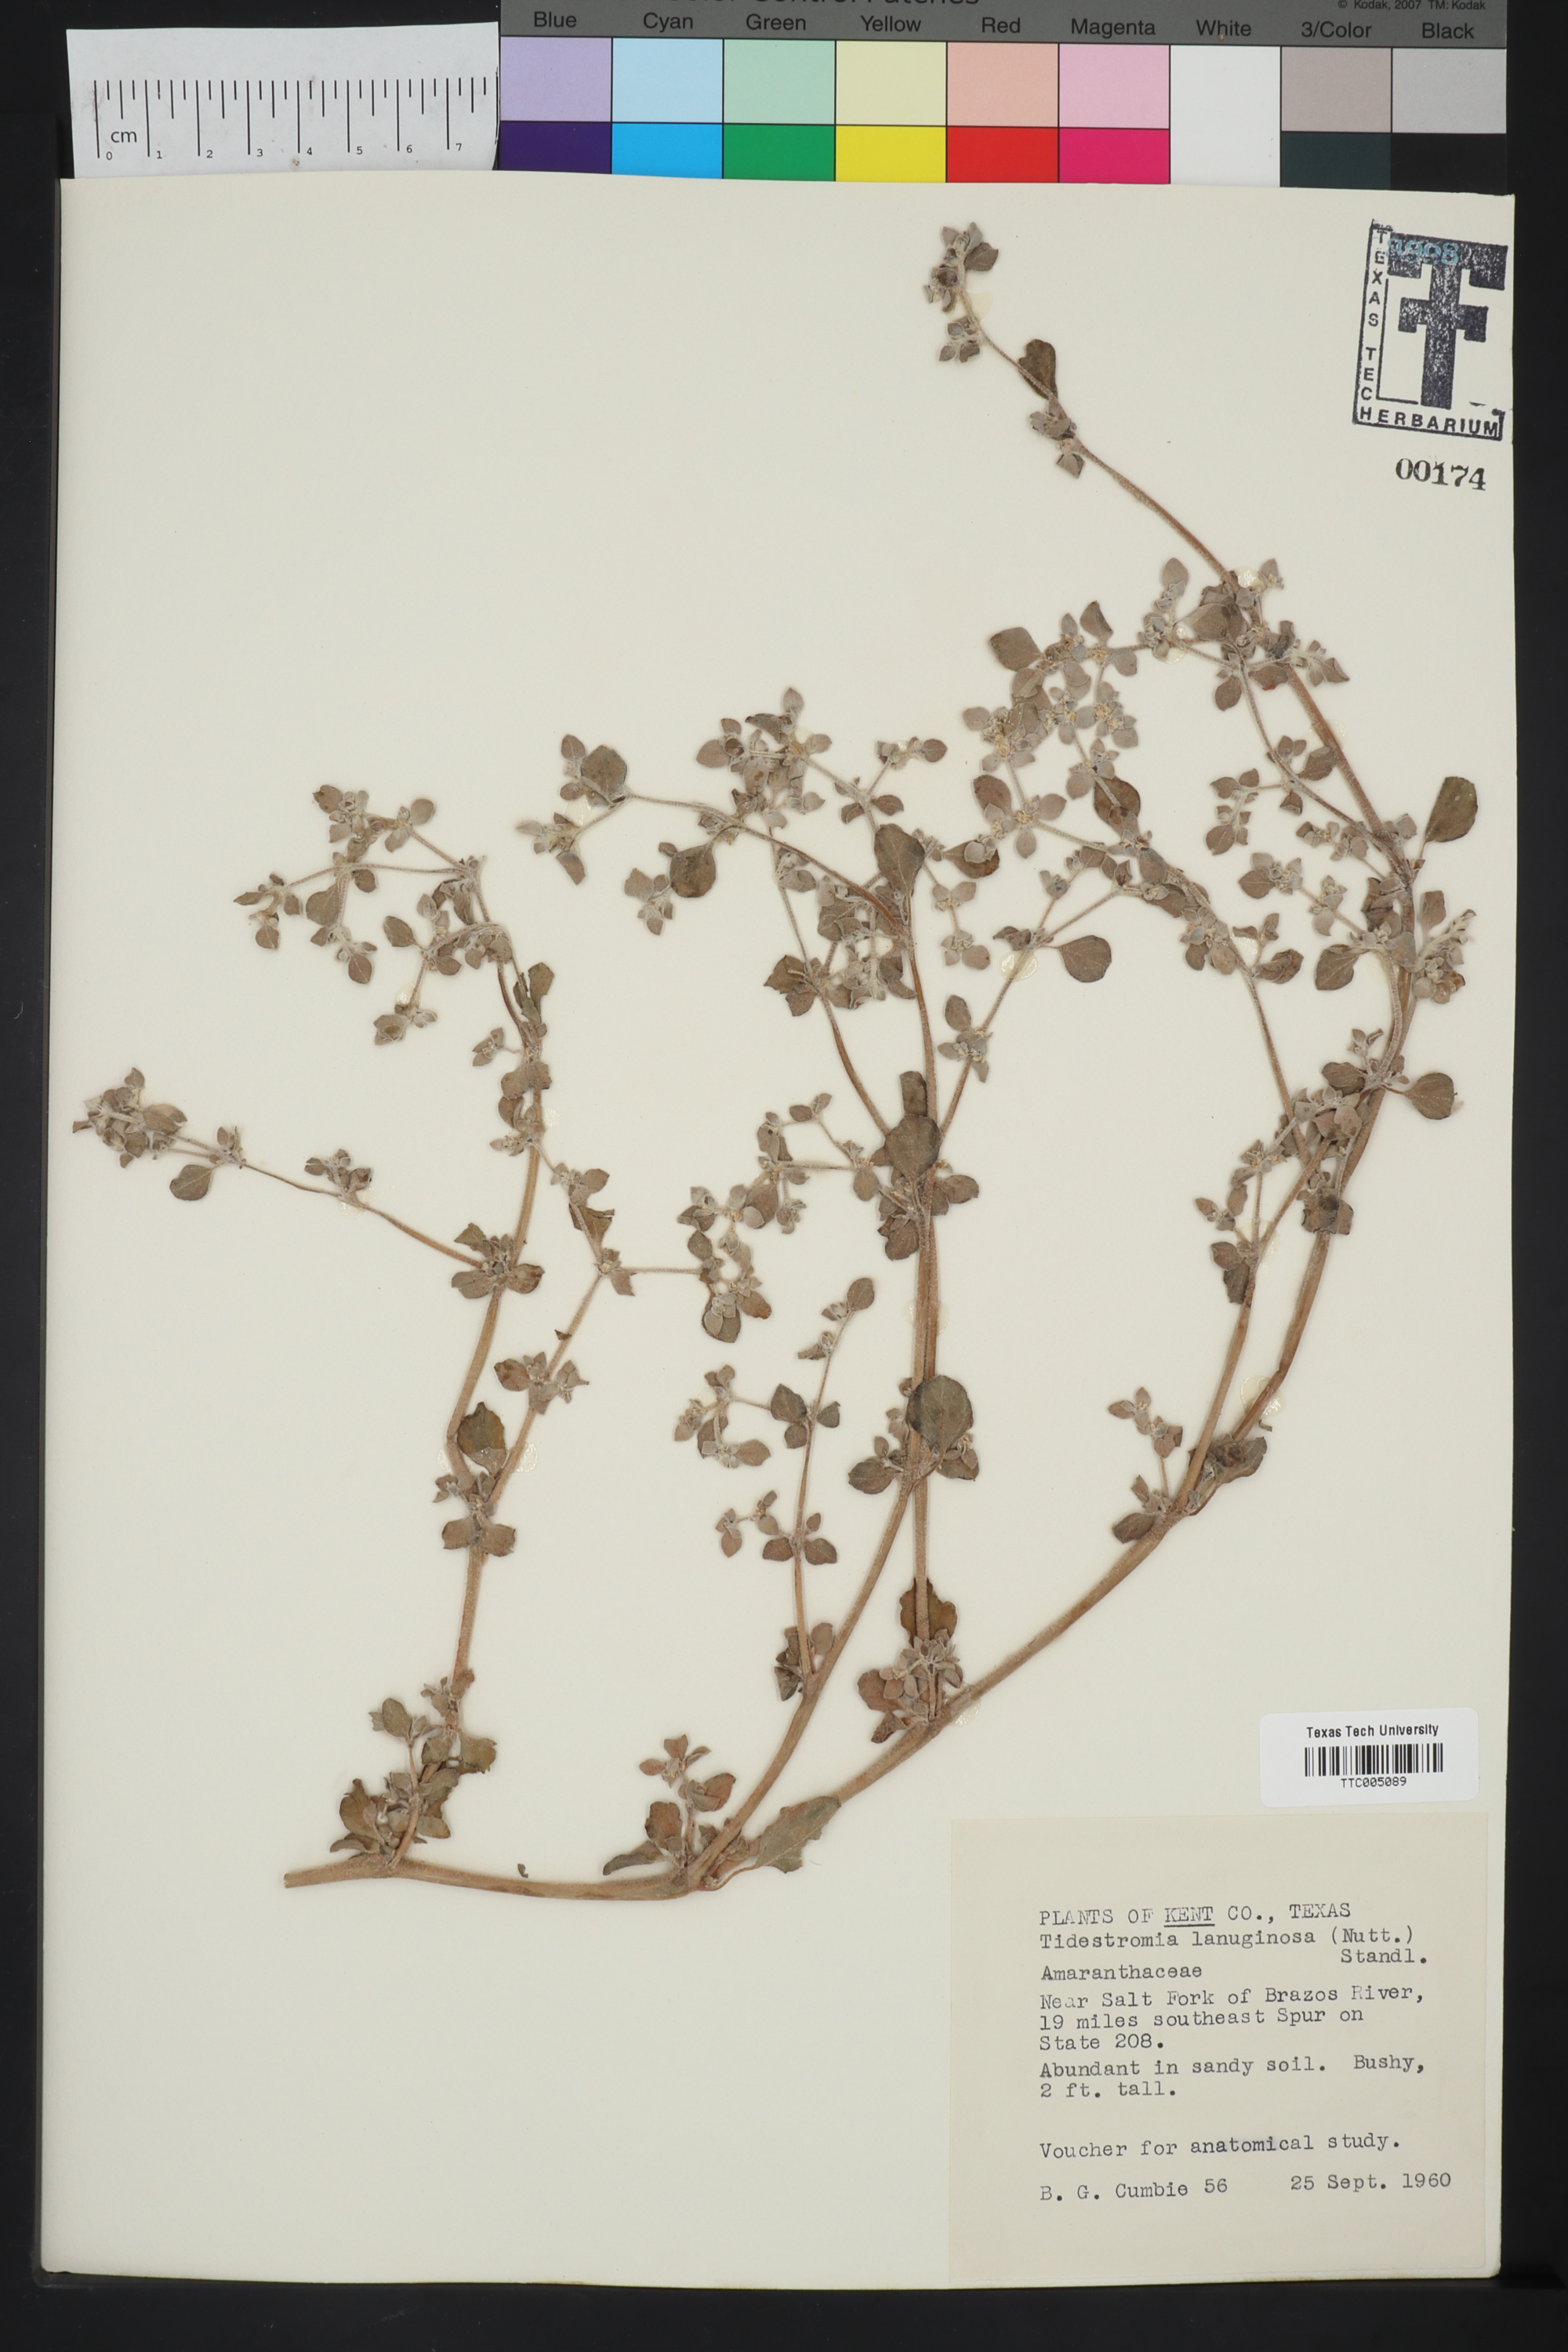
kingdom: Plantae
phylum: Tracheophyta
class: Magnoliopsida
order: Caryophyllales
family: Amaranthaceae
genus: Tidestromia
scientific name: Tidestromia lanuginosa
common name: Woolly tidestromia
